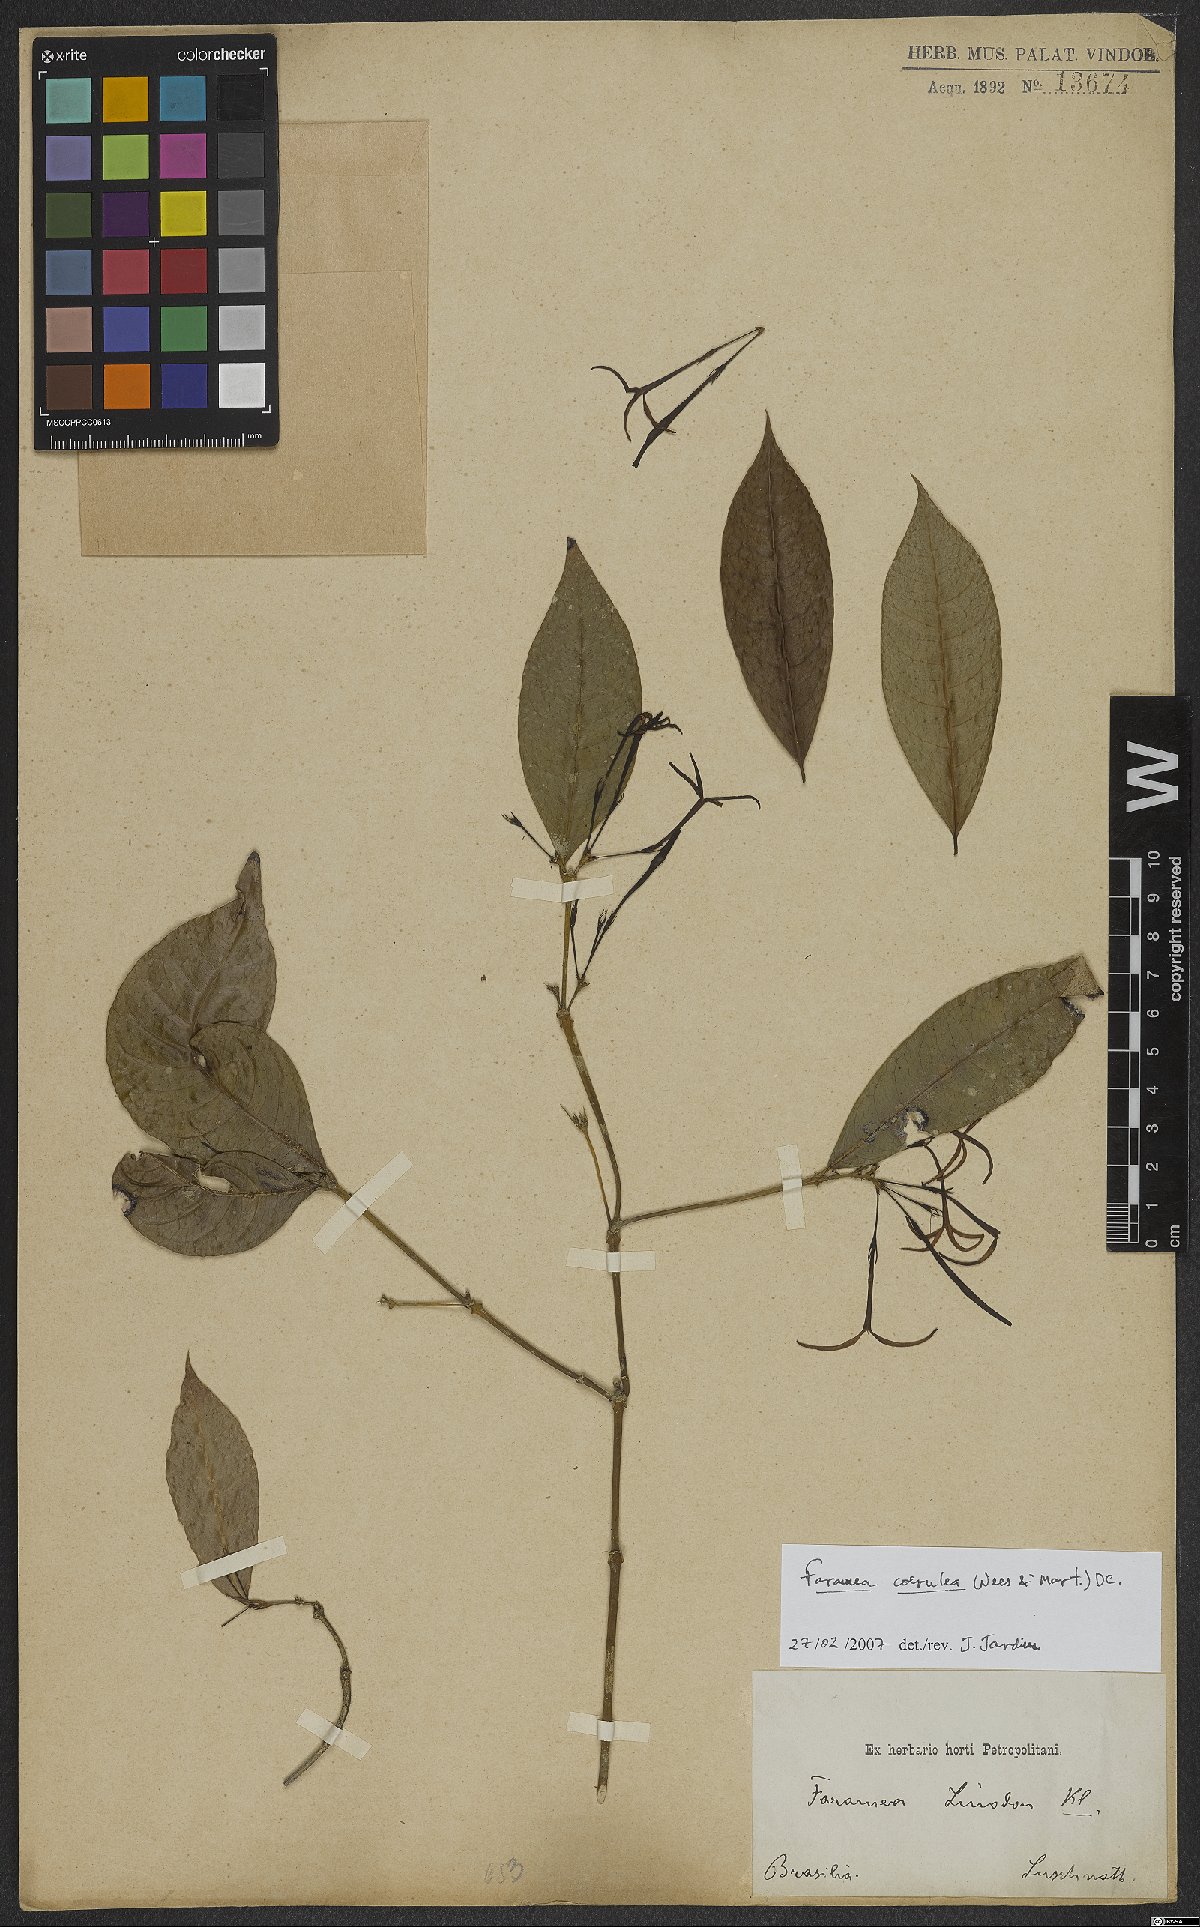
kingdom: Plantae
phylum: Tracheophyta
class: Magnoliopsida
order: Gentianales
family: Rubiaceae
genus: Faramea
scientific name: Faramea coerulea
